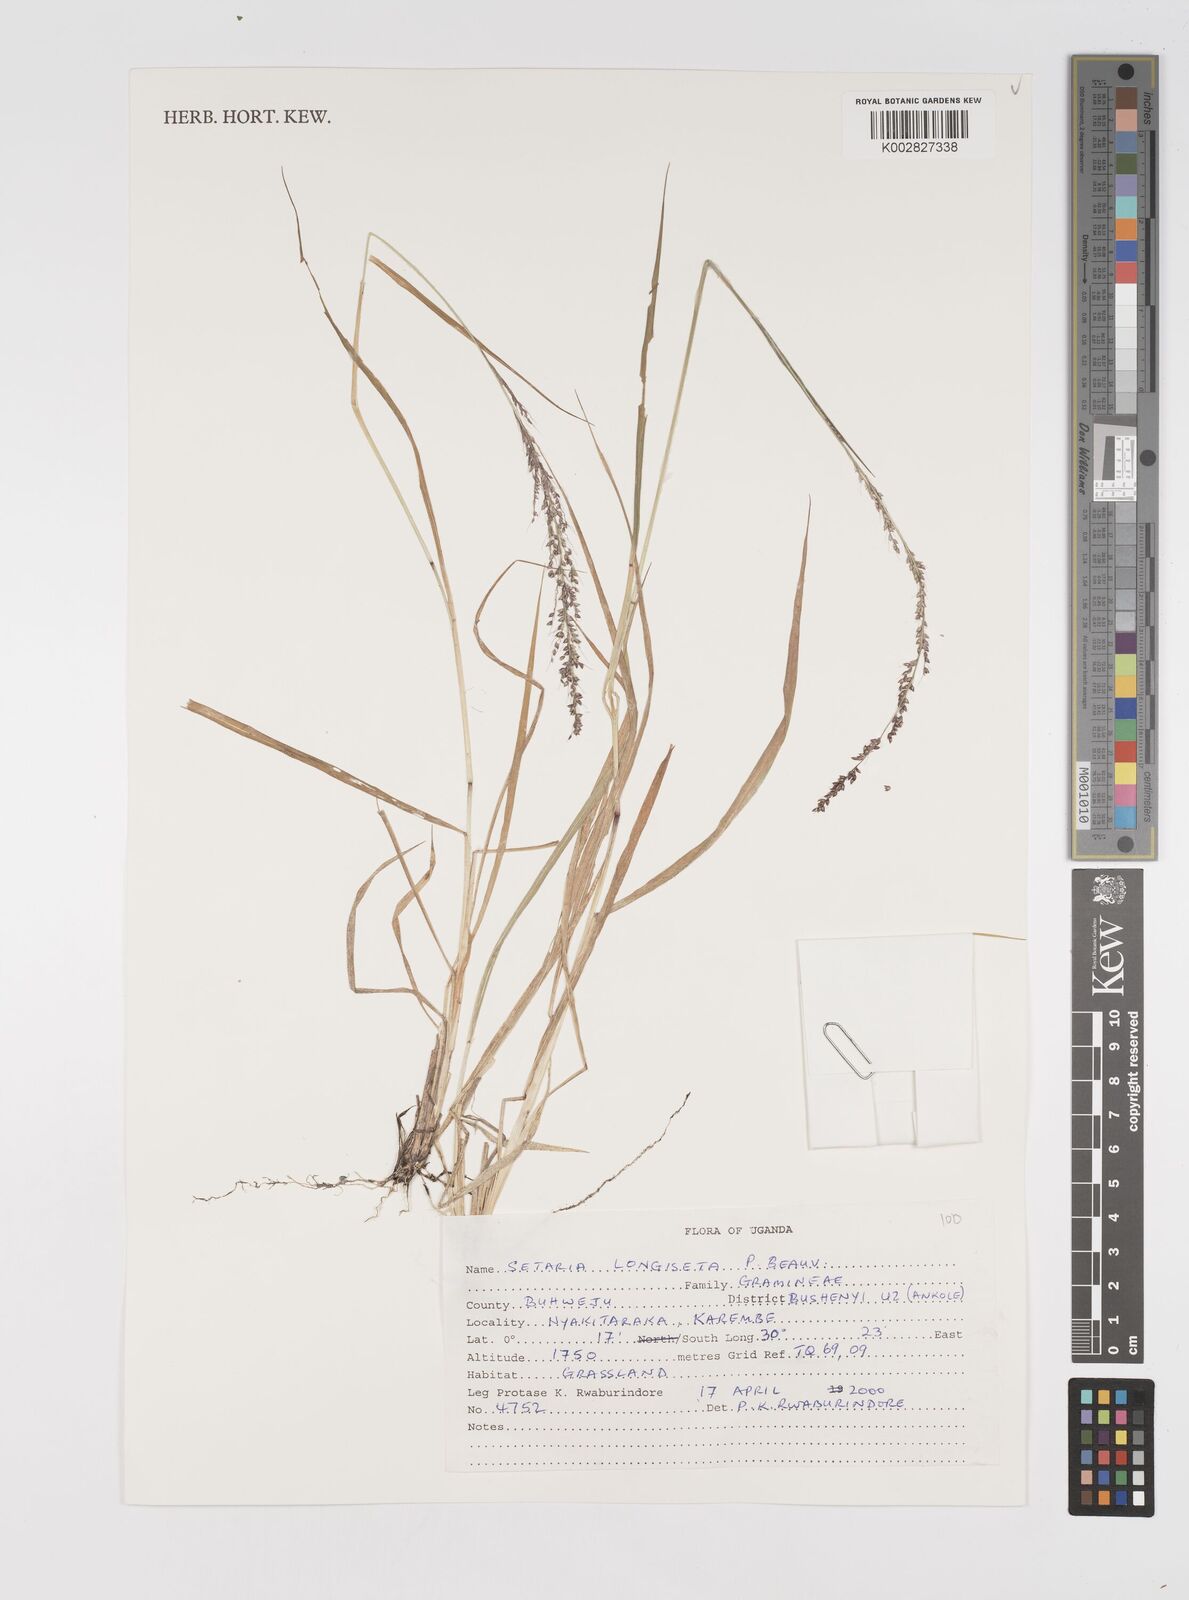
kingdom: Plantae
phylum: Tracheophyta
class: Liliopsida
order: Poales
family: Poaceae
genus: Setaria
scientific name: Setaria longiseta
